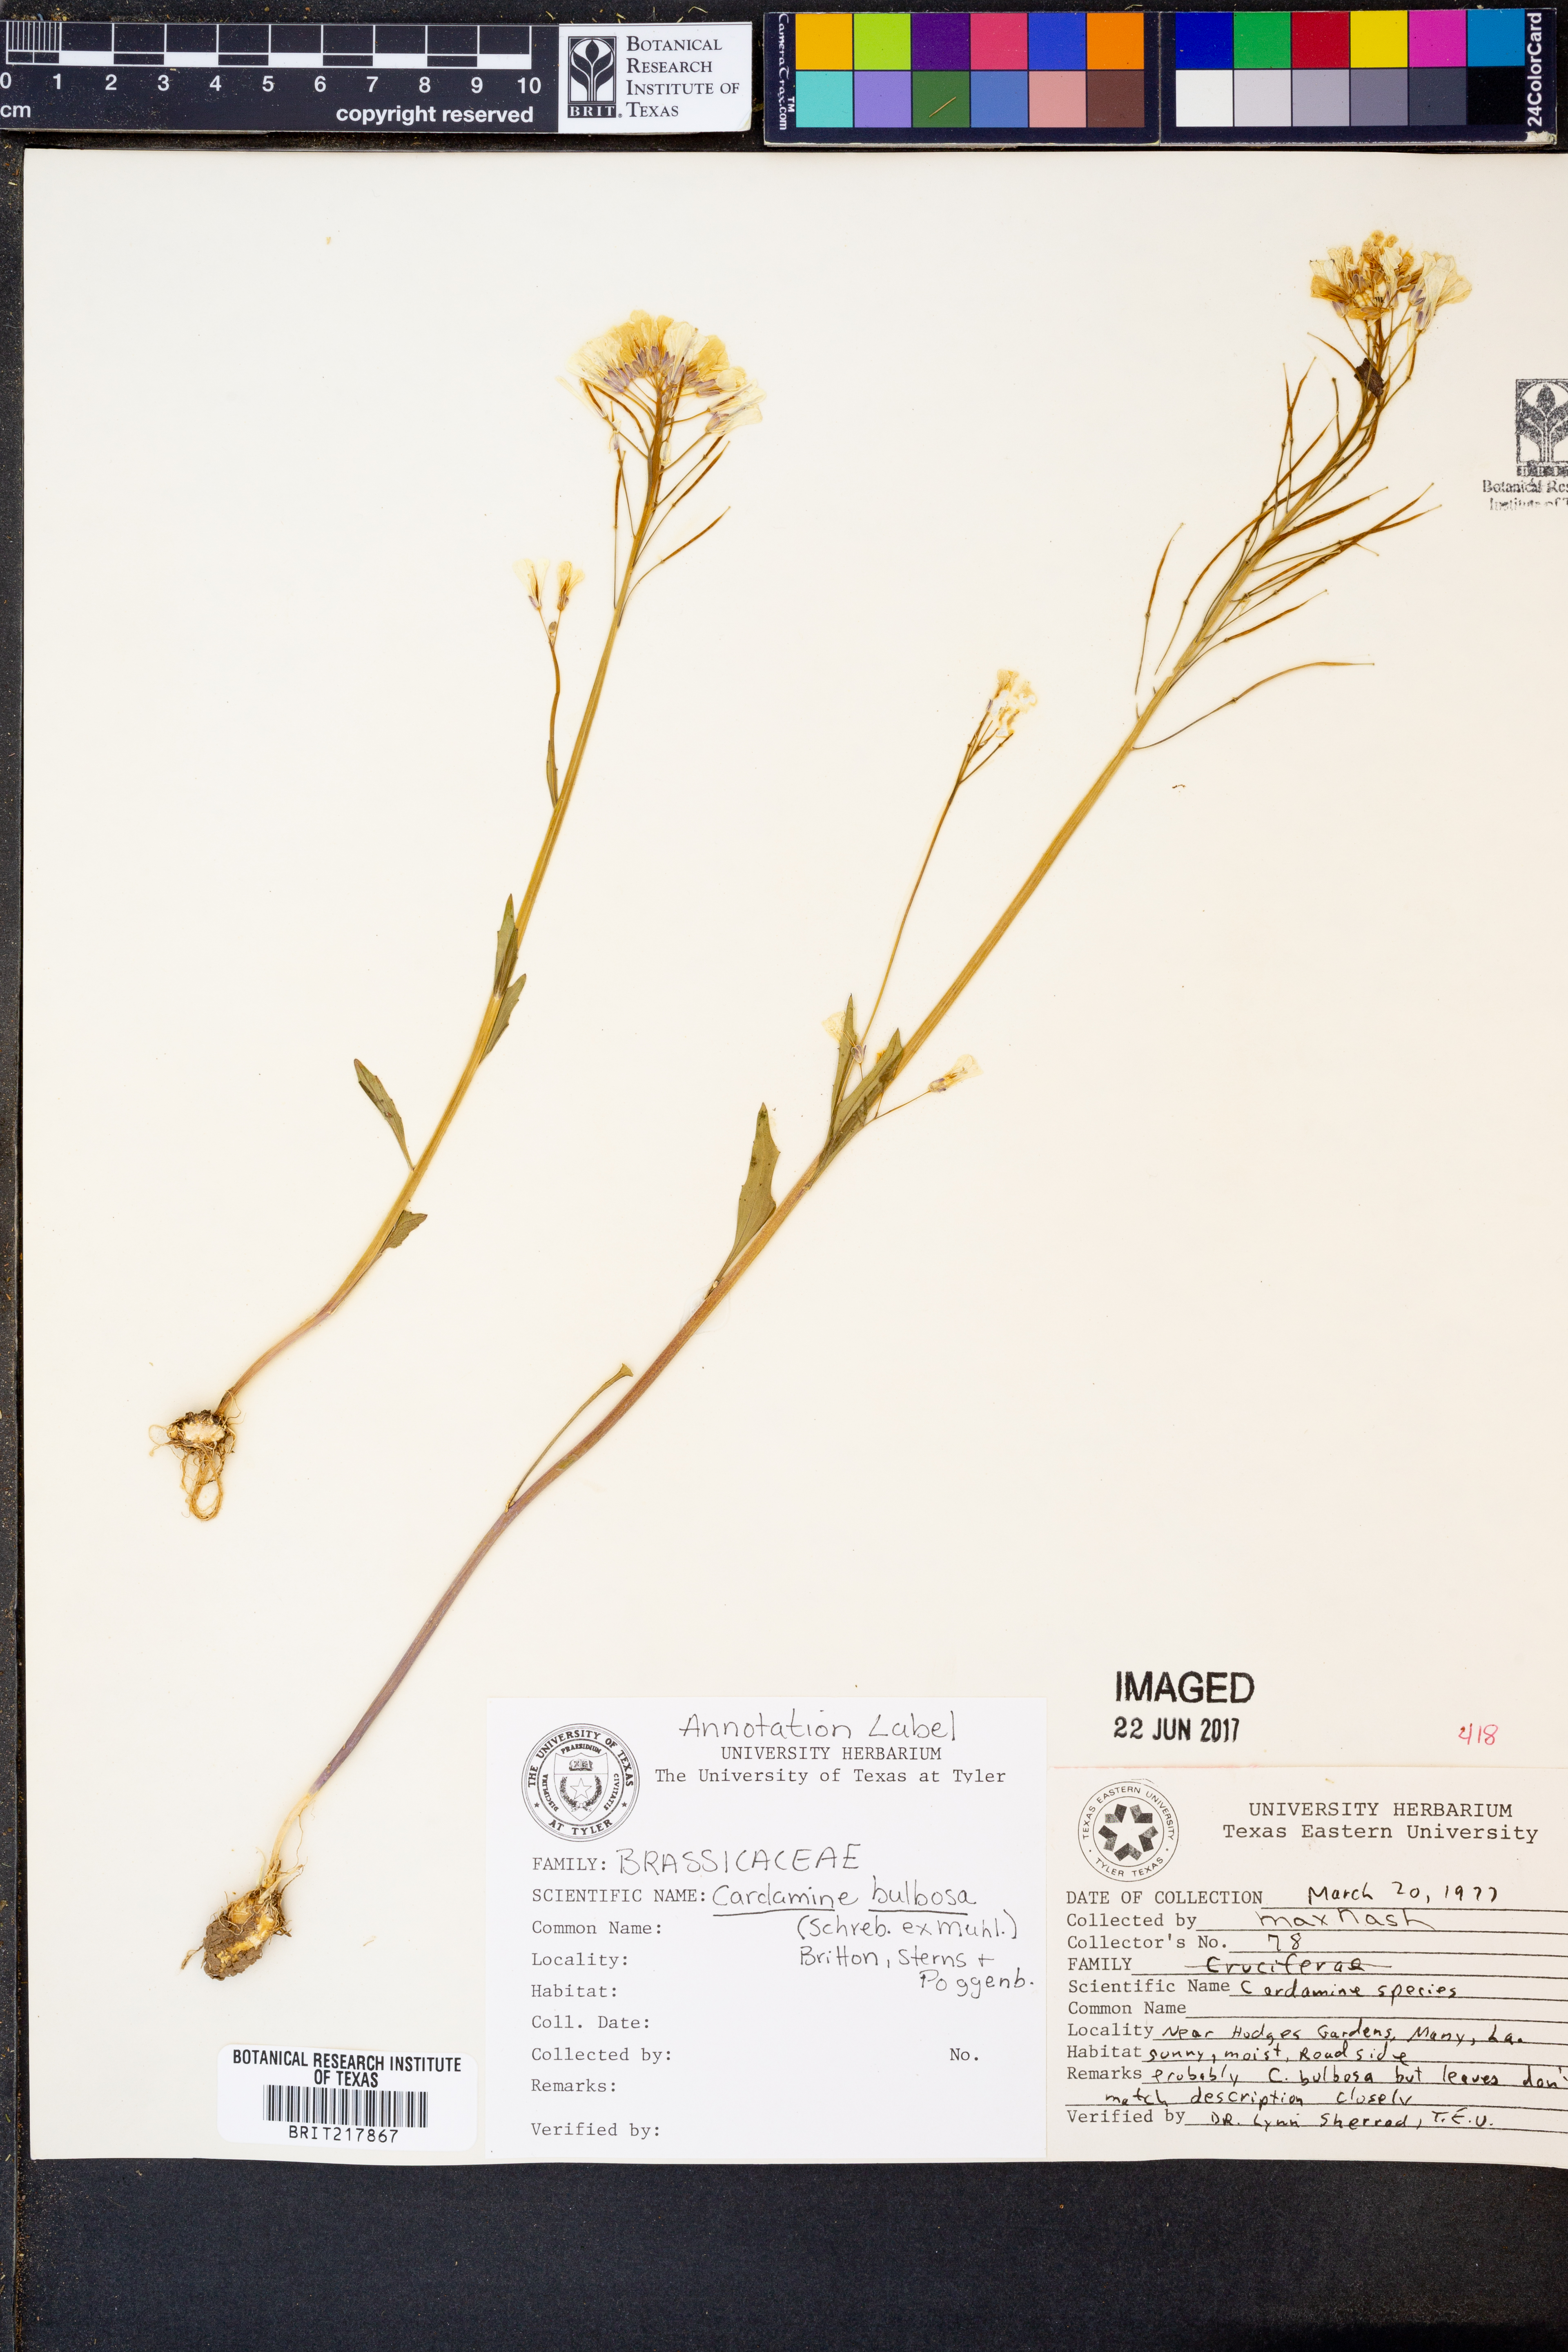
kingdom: Plantae
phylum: Tracheophyta
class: Magnoliopsida
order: Brassicales
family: Brassicaceae
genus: Cardamine
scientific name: Cardamine bulbosa
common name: Spring cress
